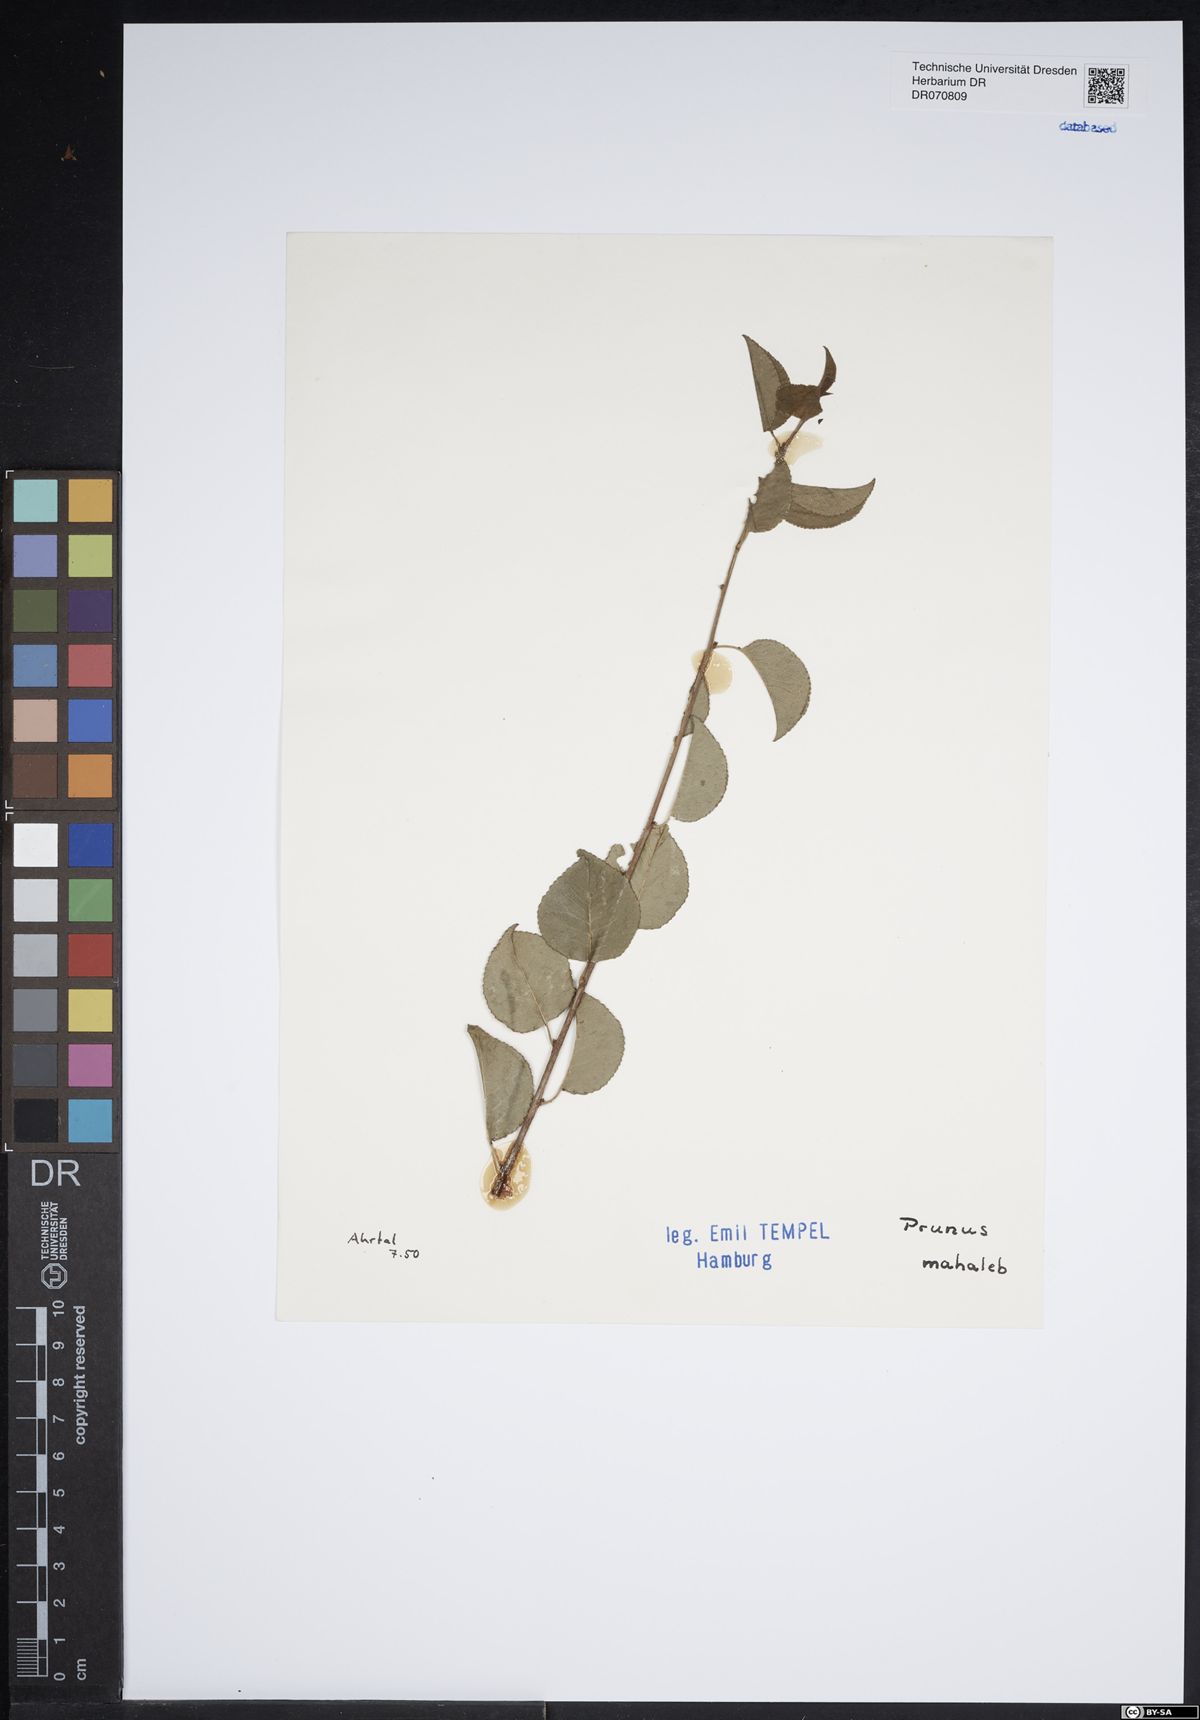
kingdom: Plantae
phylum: Tracheophyta
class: Magnoliopsida
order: Rosales
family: Rosaceae
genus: Prunus
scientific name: Prunus mahaleb
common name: Mahaleb cherry
